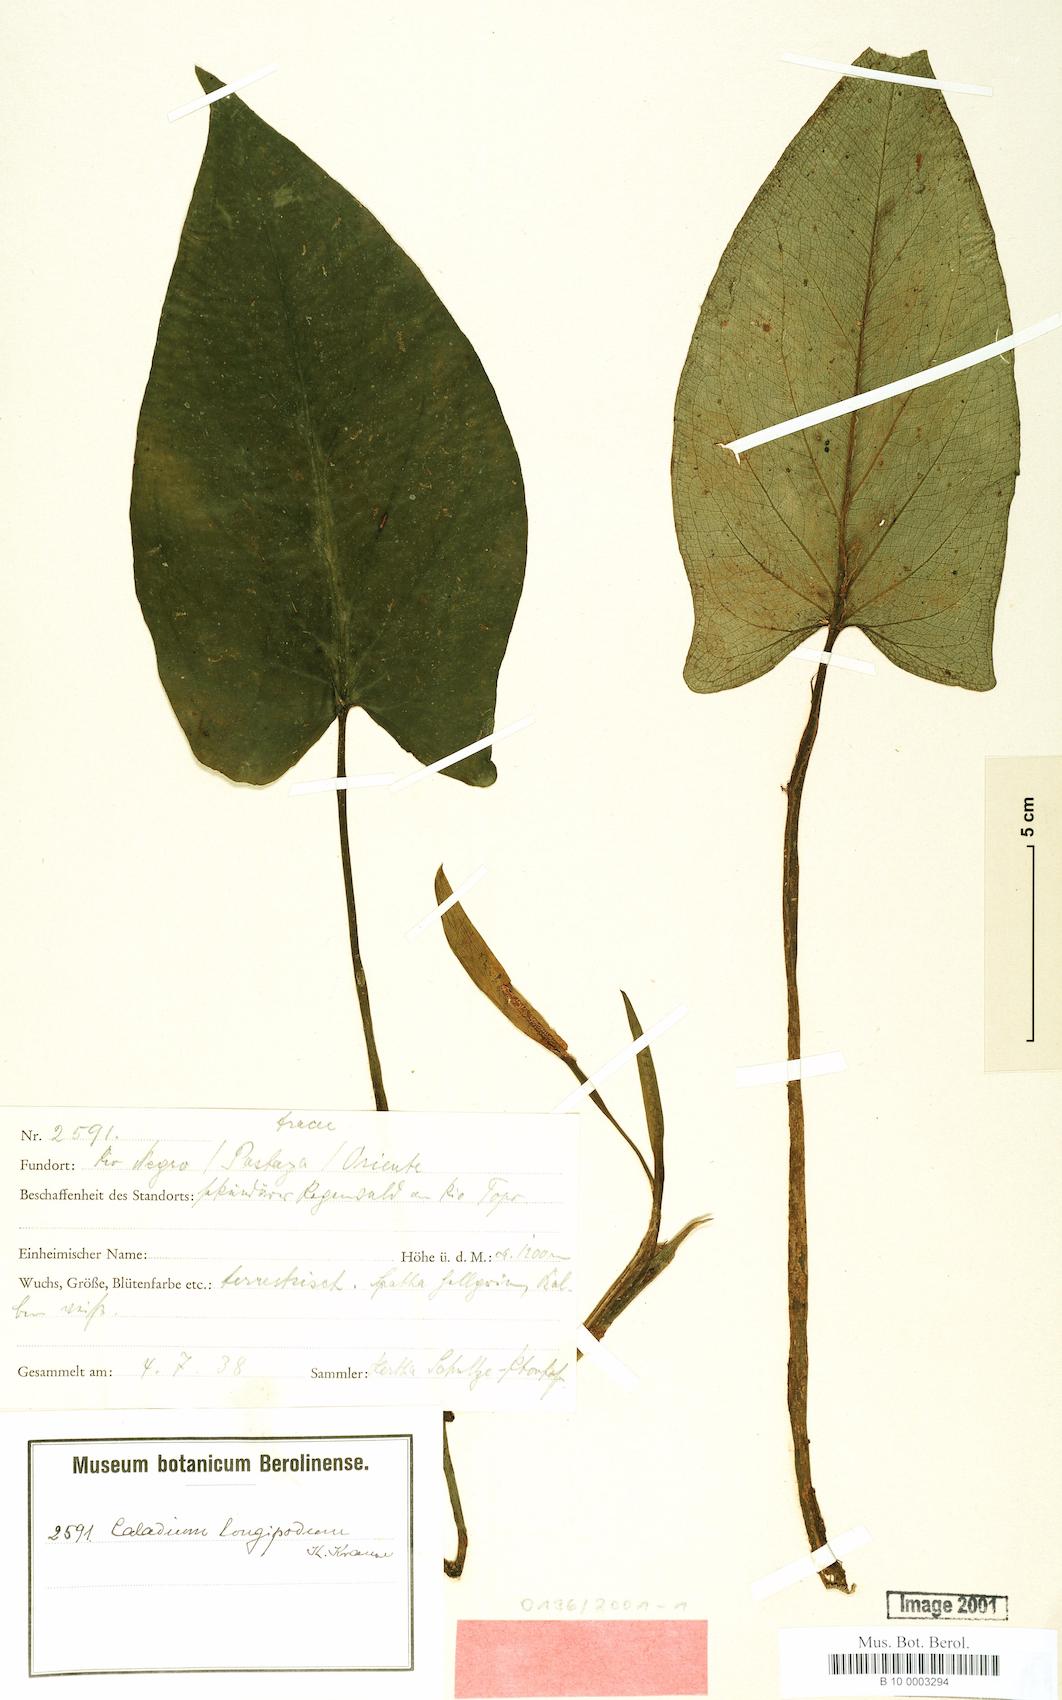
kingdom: Plantae
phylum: Tracheophyta
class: Liliopsida
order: Alismatales
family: Araceae
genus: Chlorospatha
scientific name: Chlorospatha longipoda
